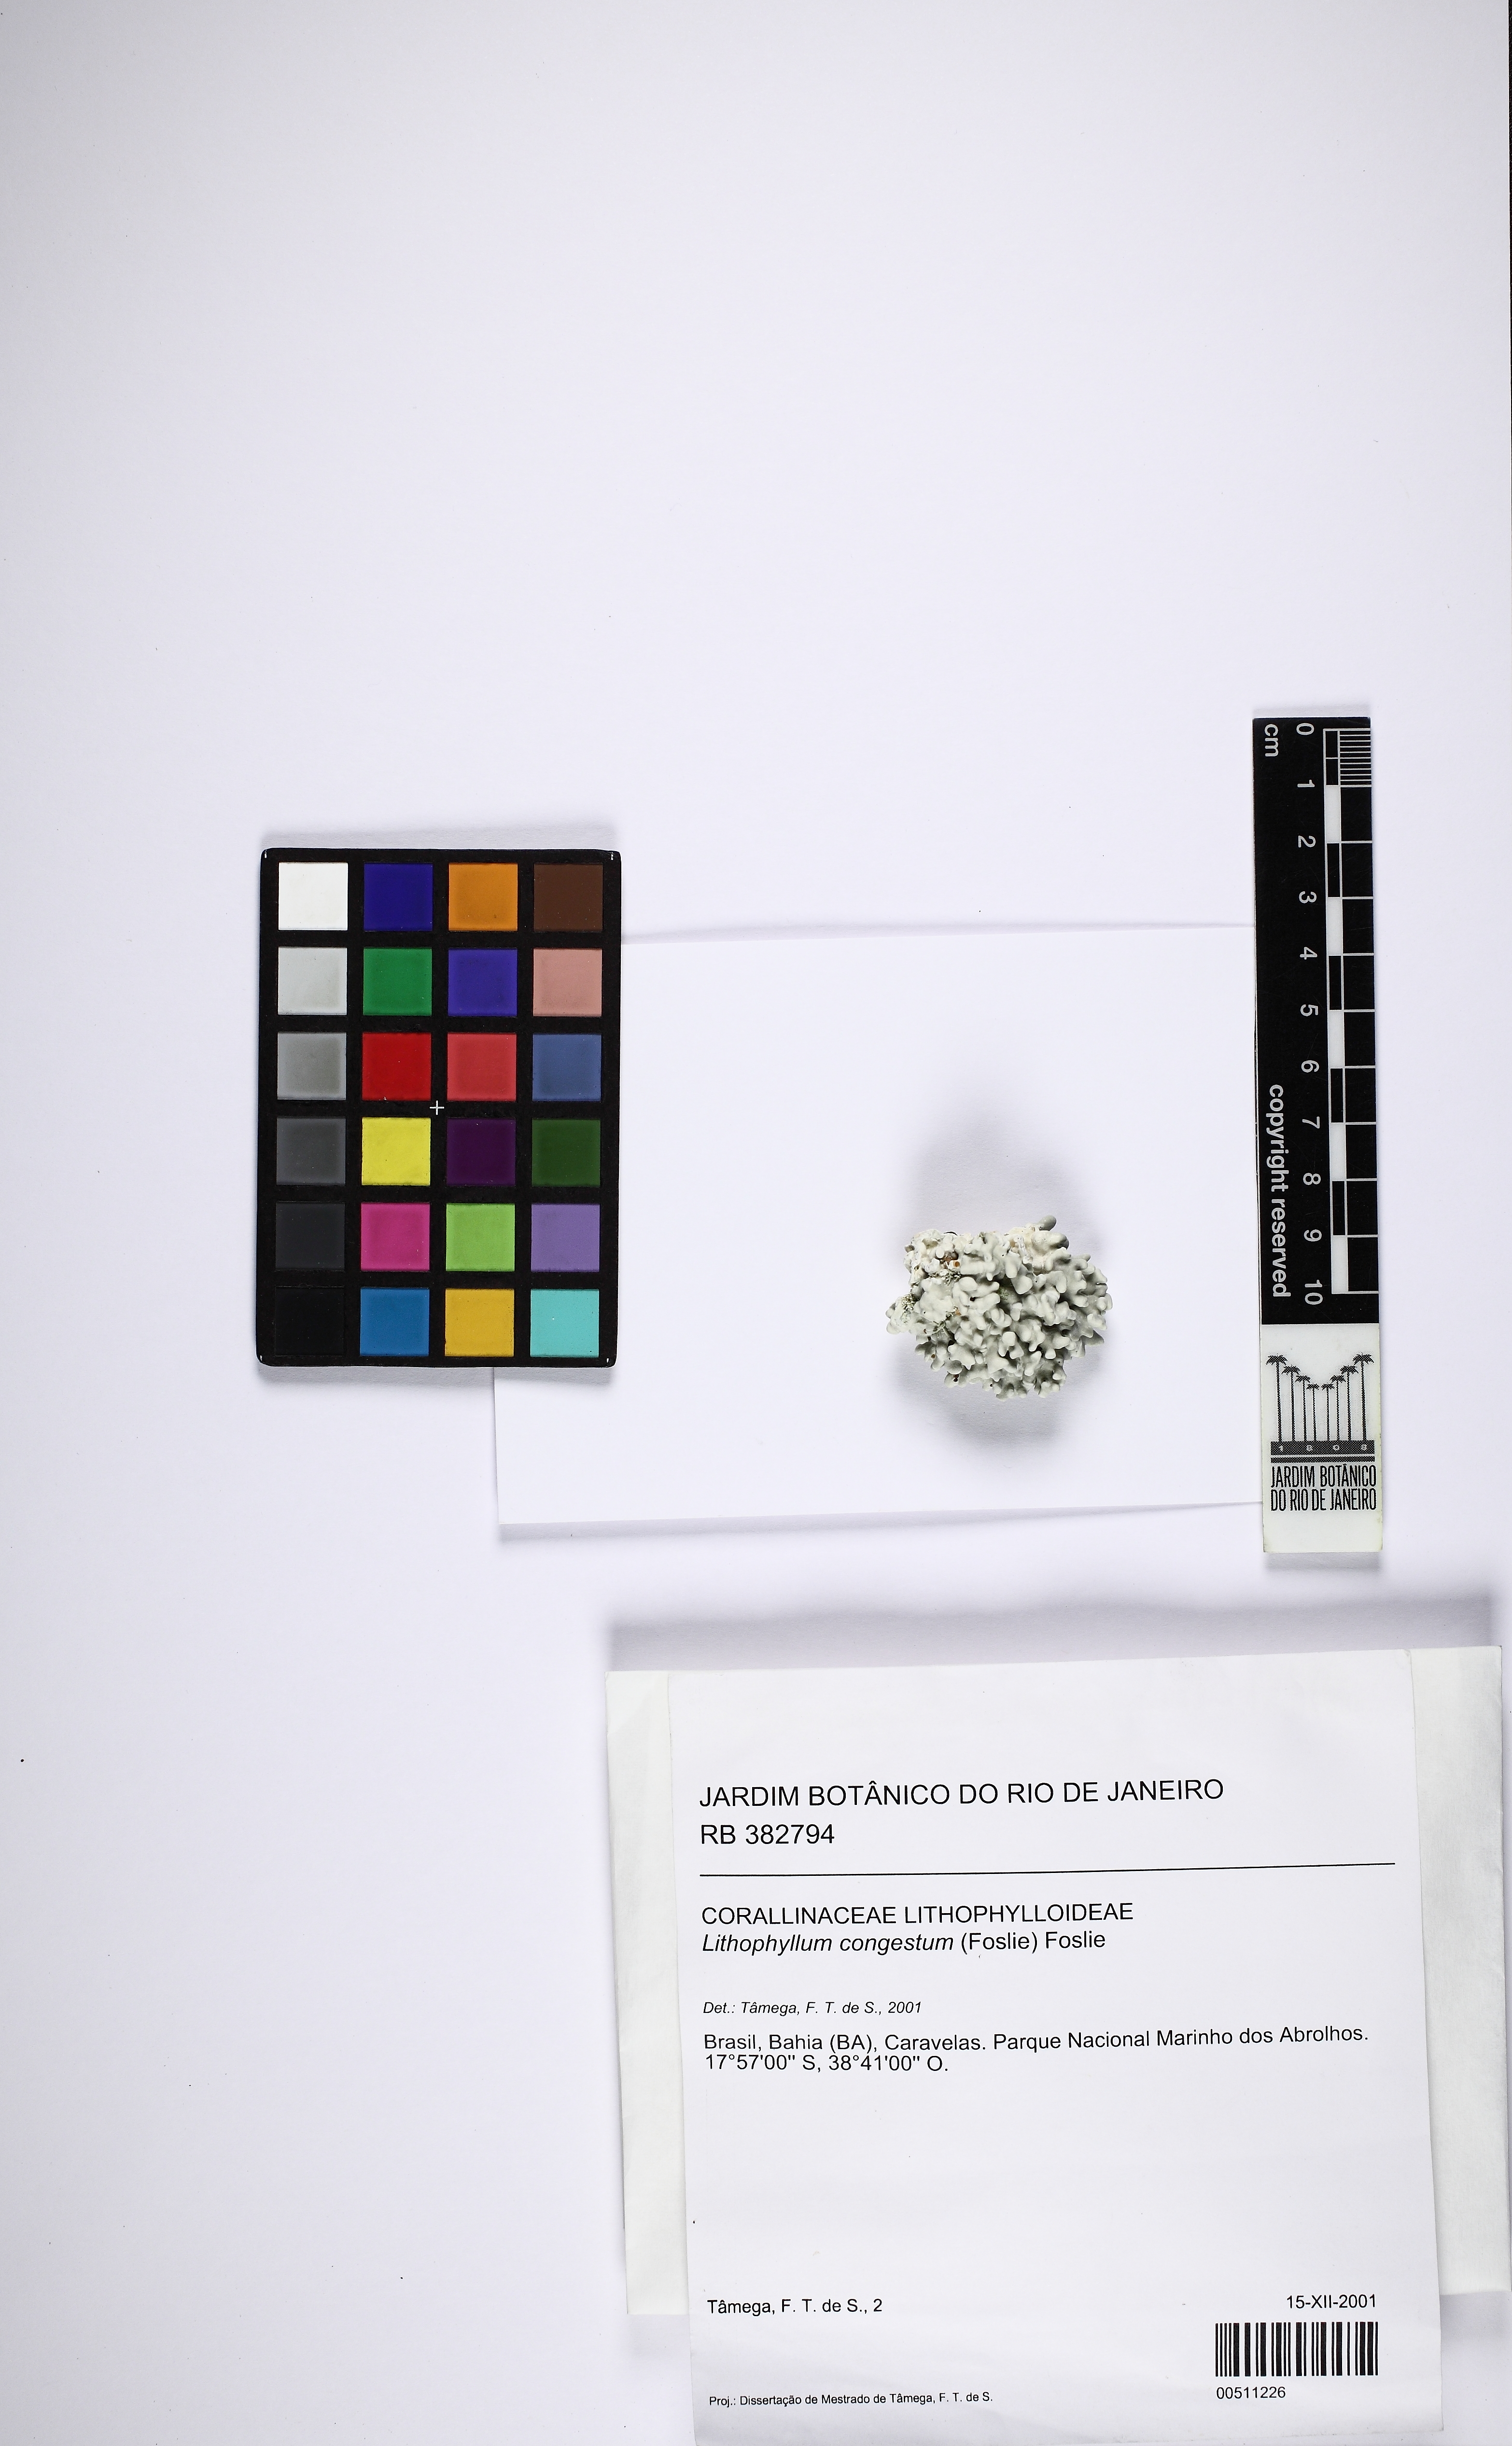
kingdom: Plantae
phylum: Rhodophyta
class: Florideophyceae
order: Corallinales
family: Lithophyllaceae
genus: Lithophyllum
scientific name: Lithophyllum congestum
